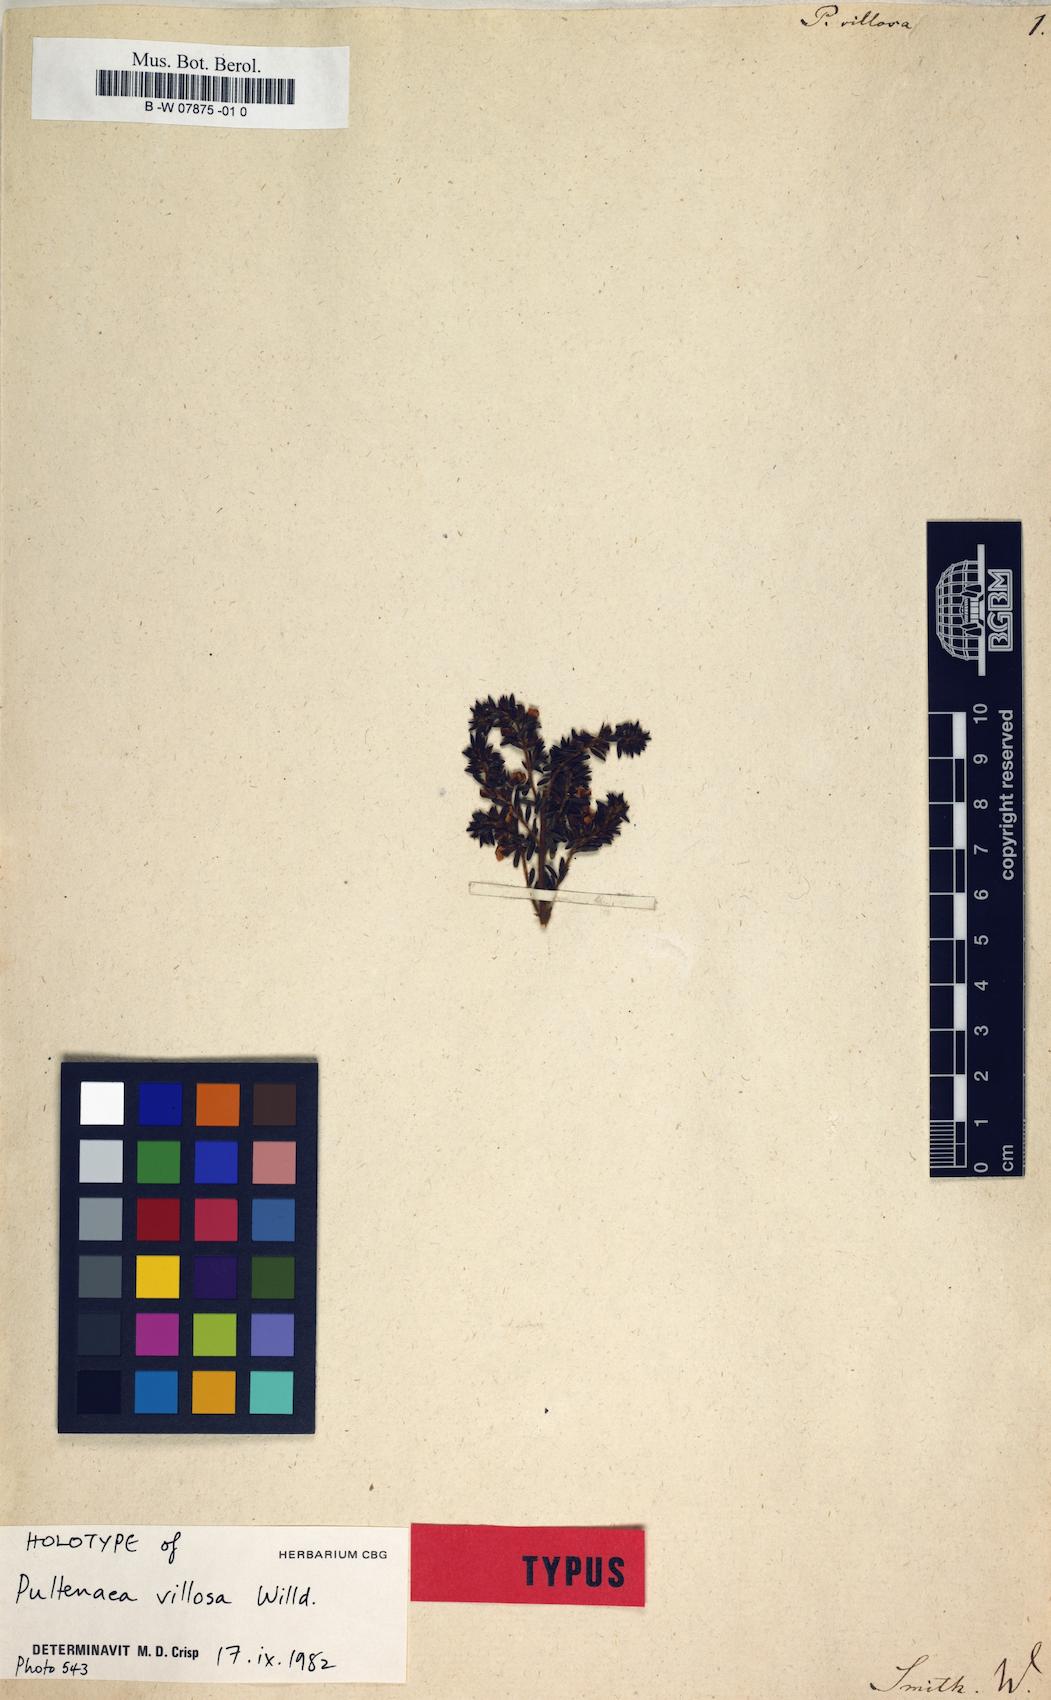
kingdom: Plantae
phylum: Tracheophyta
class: Magnoliopsida
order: Fabales
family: Fabaceae
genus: Pultenaea
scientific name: Pultenaea villosa
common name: Bronze bush-pea
